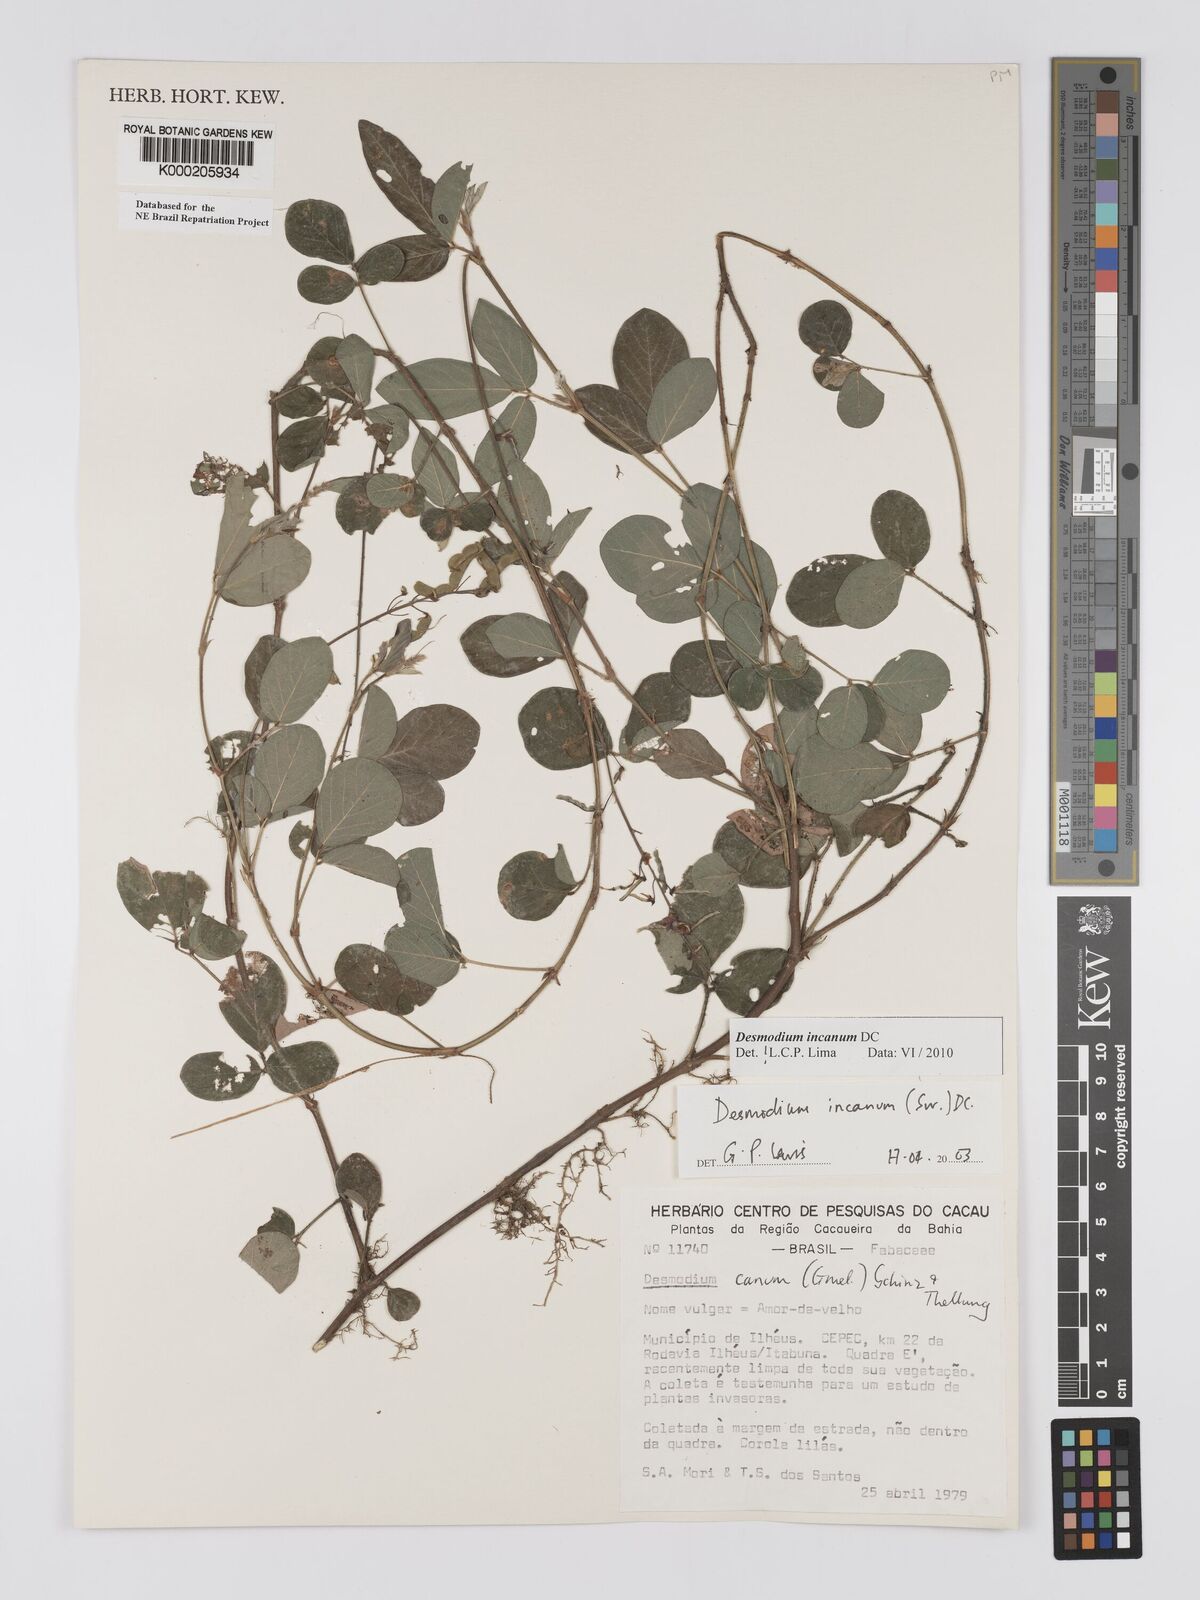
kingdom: Plantae
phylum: Tracheophyta
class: Magnoliopsida
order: Fabales
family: Fabaceae
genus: Desmodium
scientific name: Desmodium incanum
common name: Tickclover
